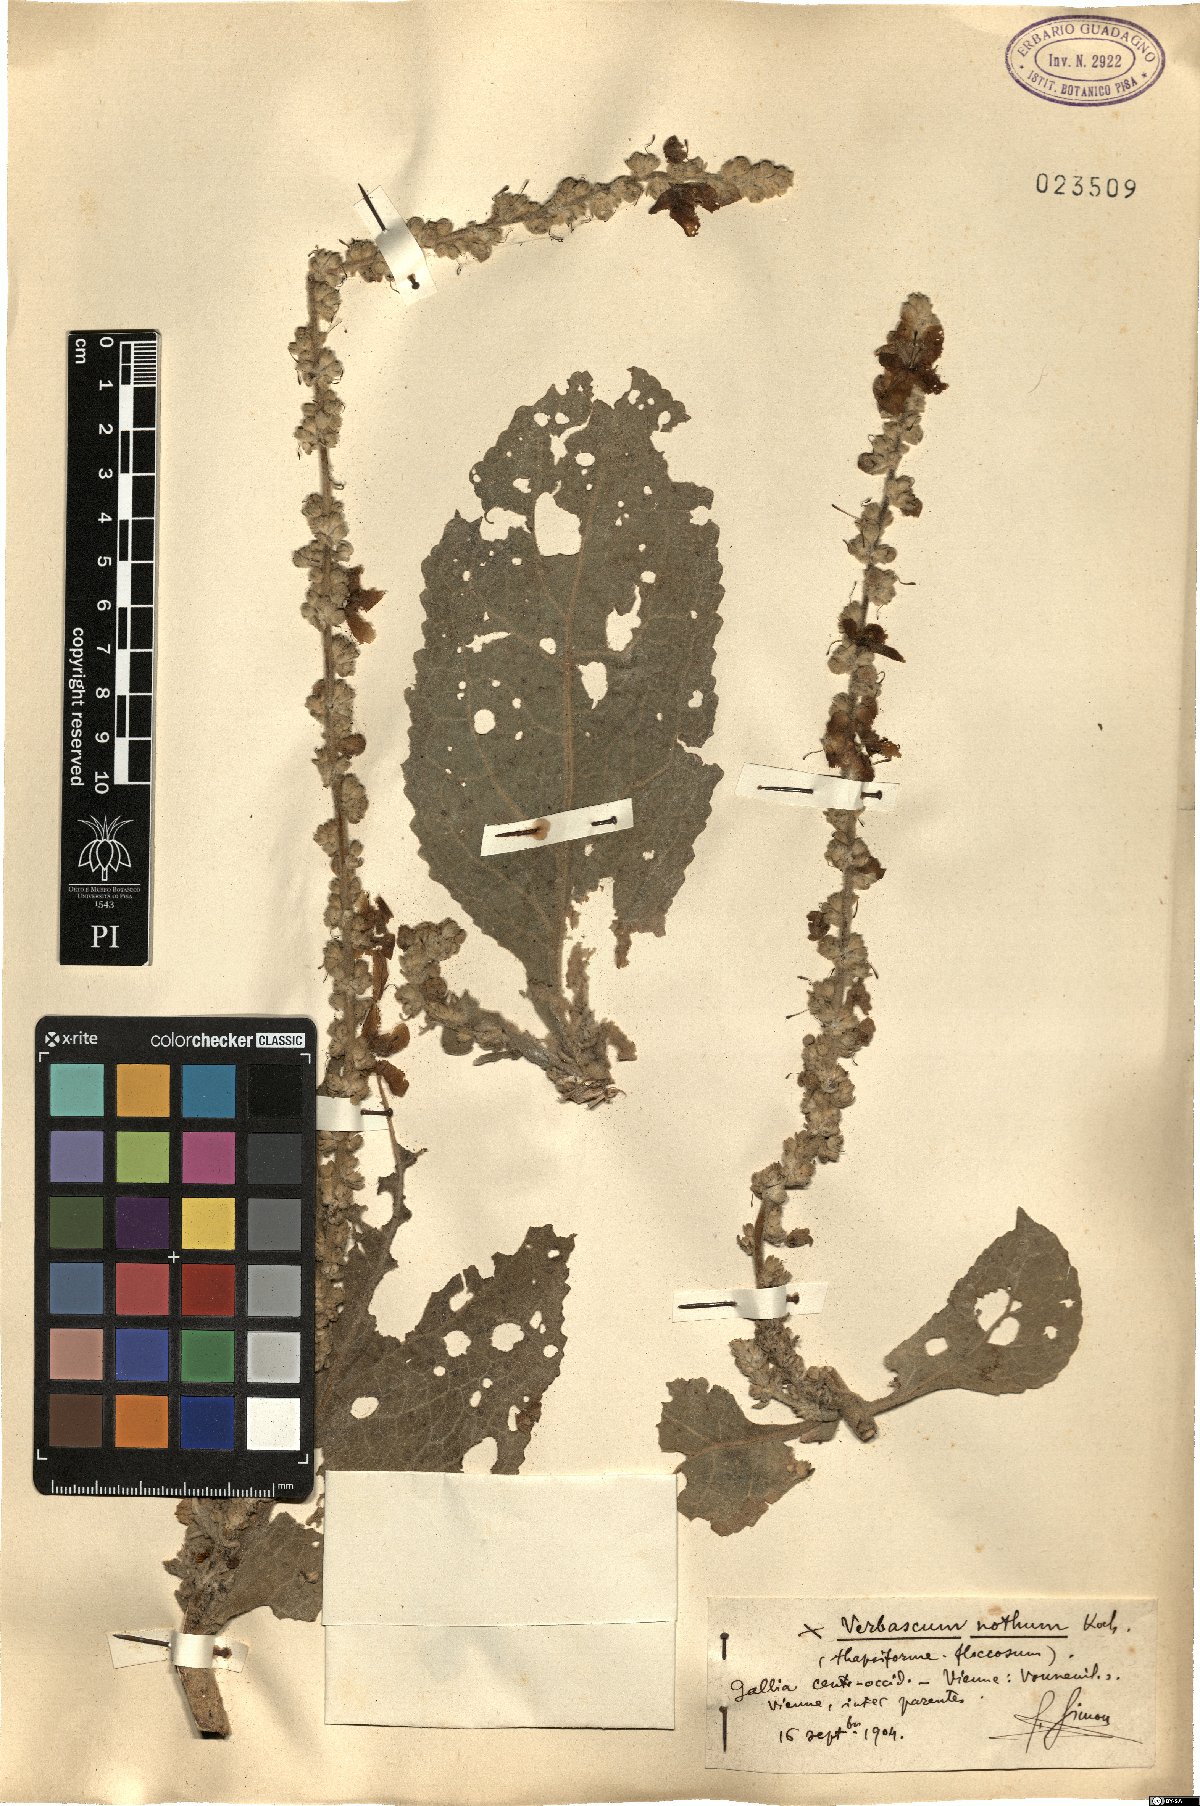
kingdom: Plantae
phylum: Tracheophyta
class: Magnoliopsida
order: Lamiales
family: Scrophulariaceae
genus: Verbascum
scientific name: Verbascum nothum
